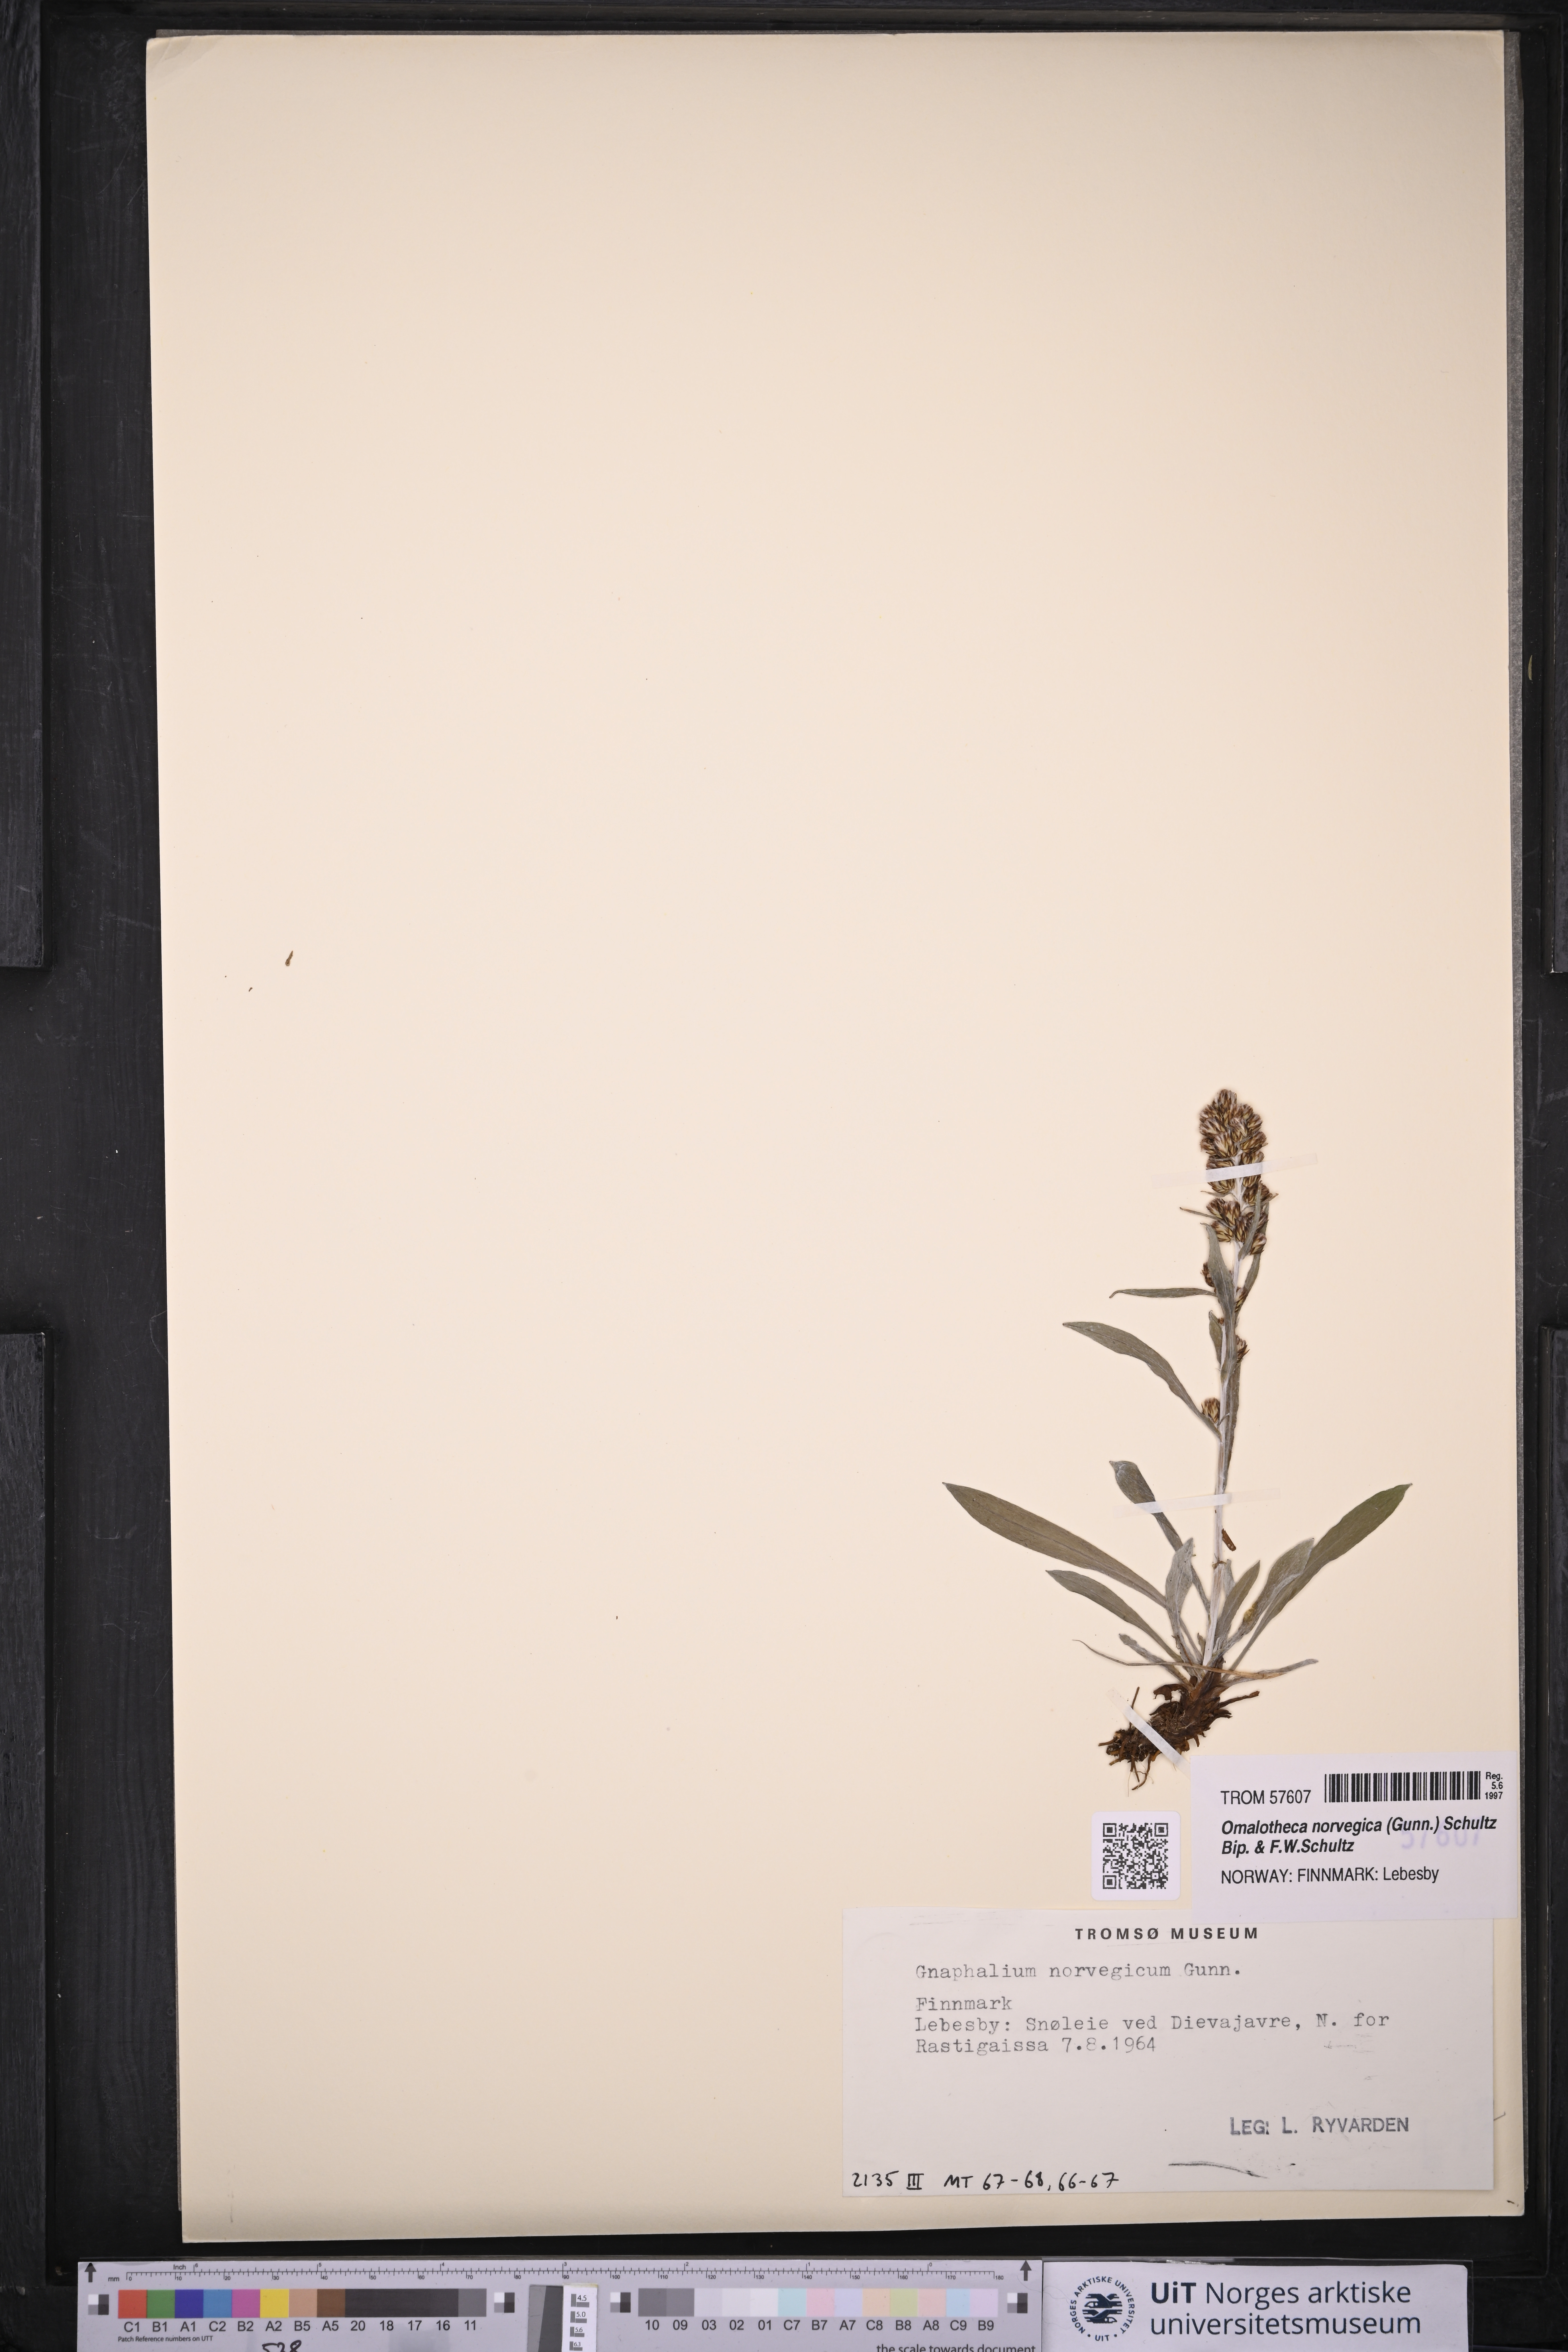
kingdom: Plantae
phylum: Tracheophyta
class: Magnoliopsida
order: Asterales
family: Asteraceae
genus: Omalotheca
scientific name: Omalotheca norvegica
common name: Norwegian arctic-cudweed
